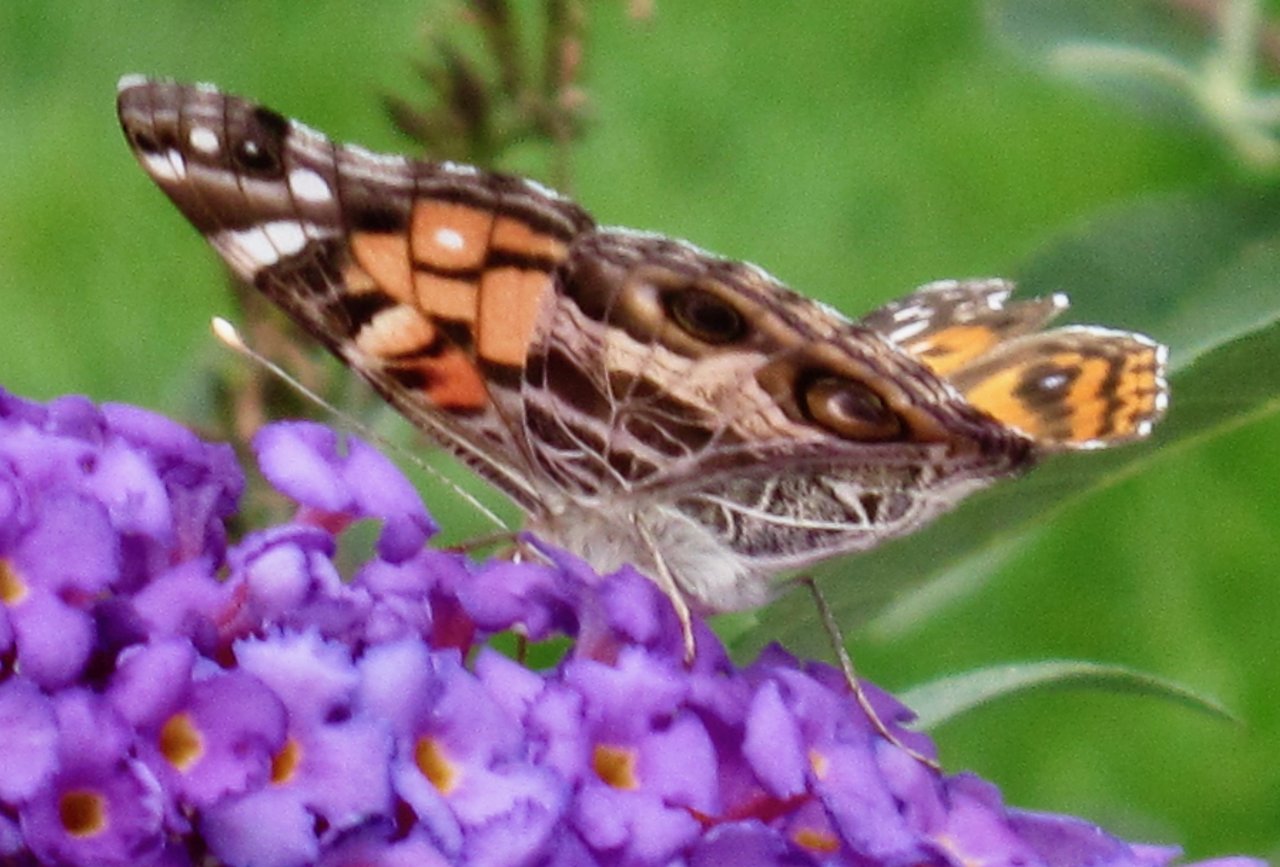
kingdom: Animalia
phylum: Arthropoda
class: Insecta
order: Lepidoptera
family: Nymphalidae
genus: Vanessa
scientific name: Vanessa virginiensis
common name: American Lady
